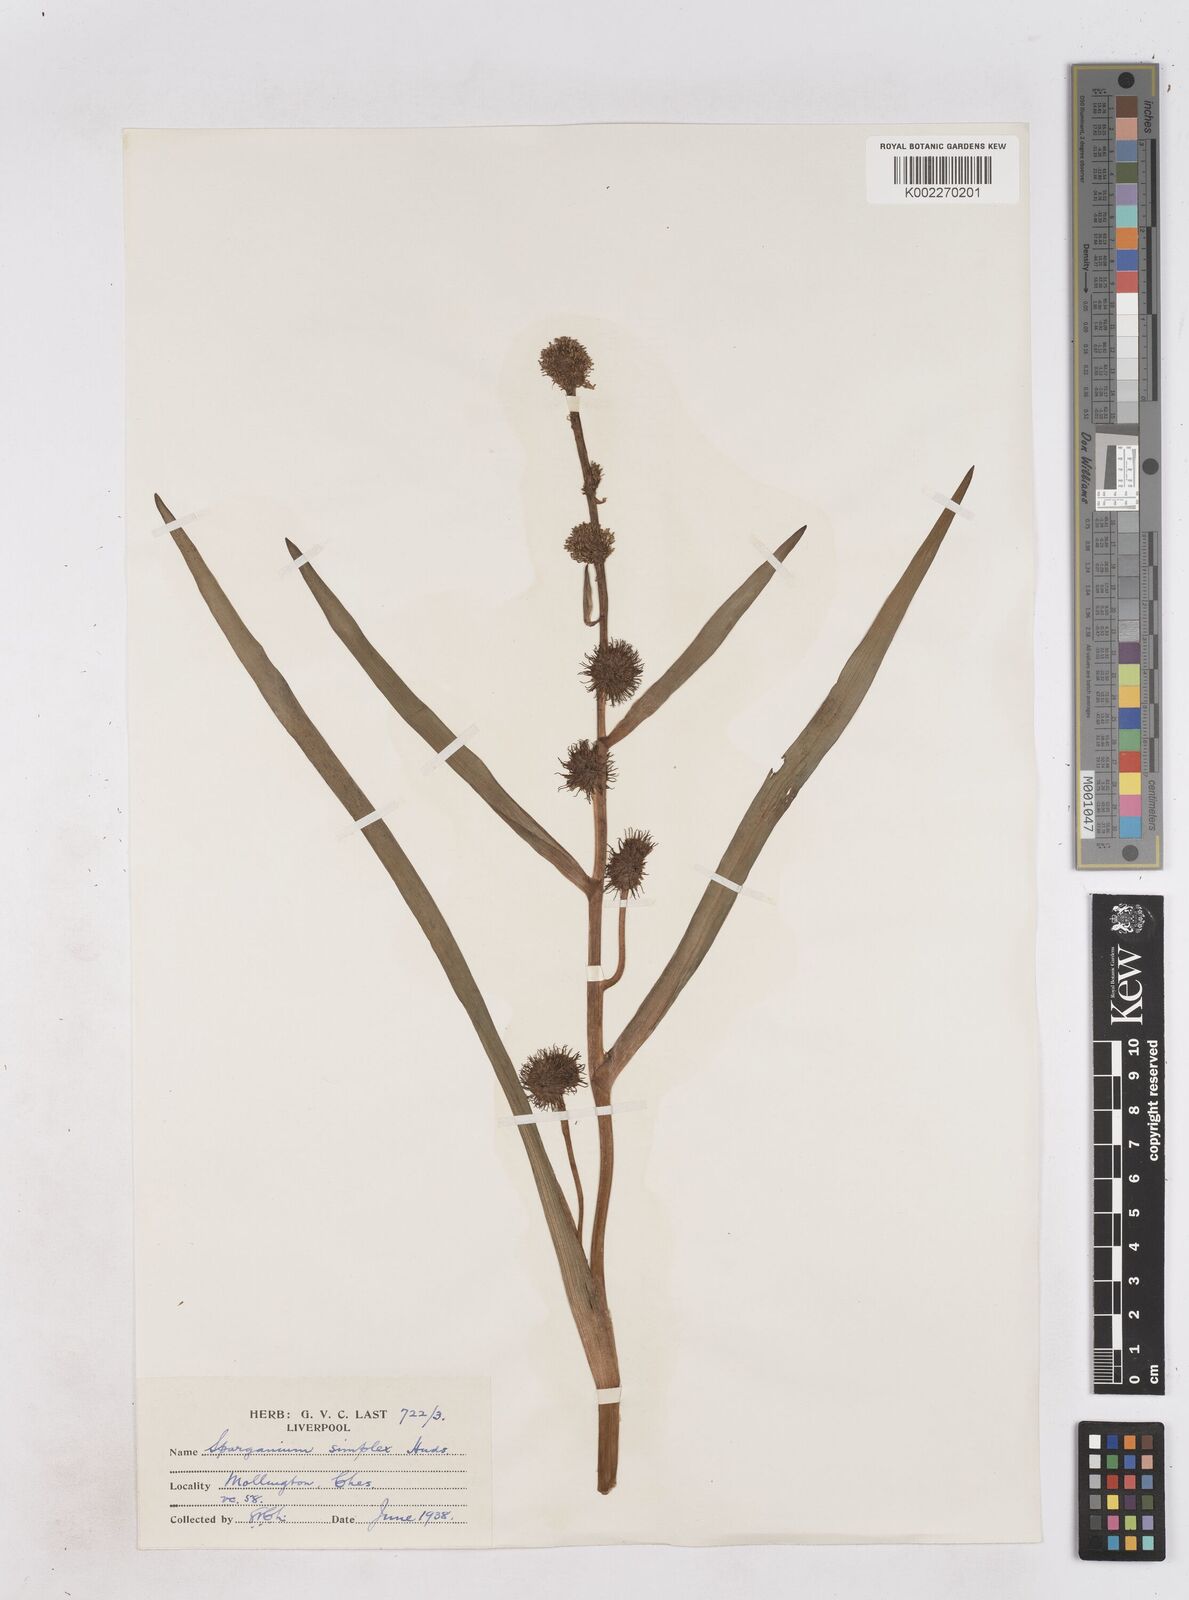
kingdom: Plantae
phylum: Tracheophyta
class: Liliopsida
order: Poales
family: Typhaceae
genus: Sparganium
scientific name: Sparganium emersum
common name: Unbranched bur-reed
